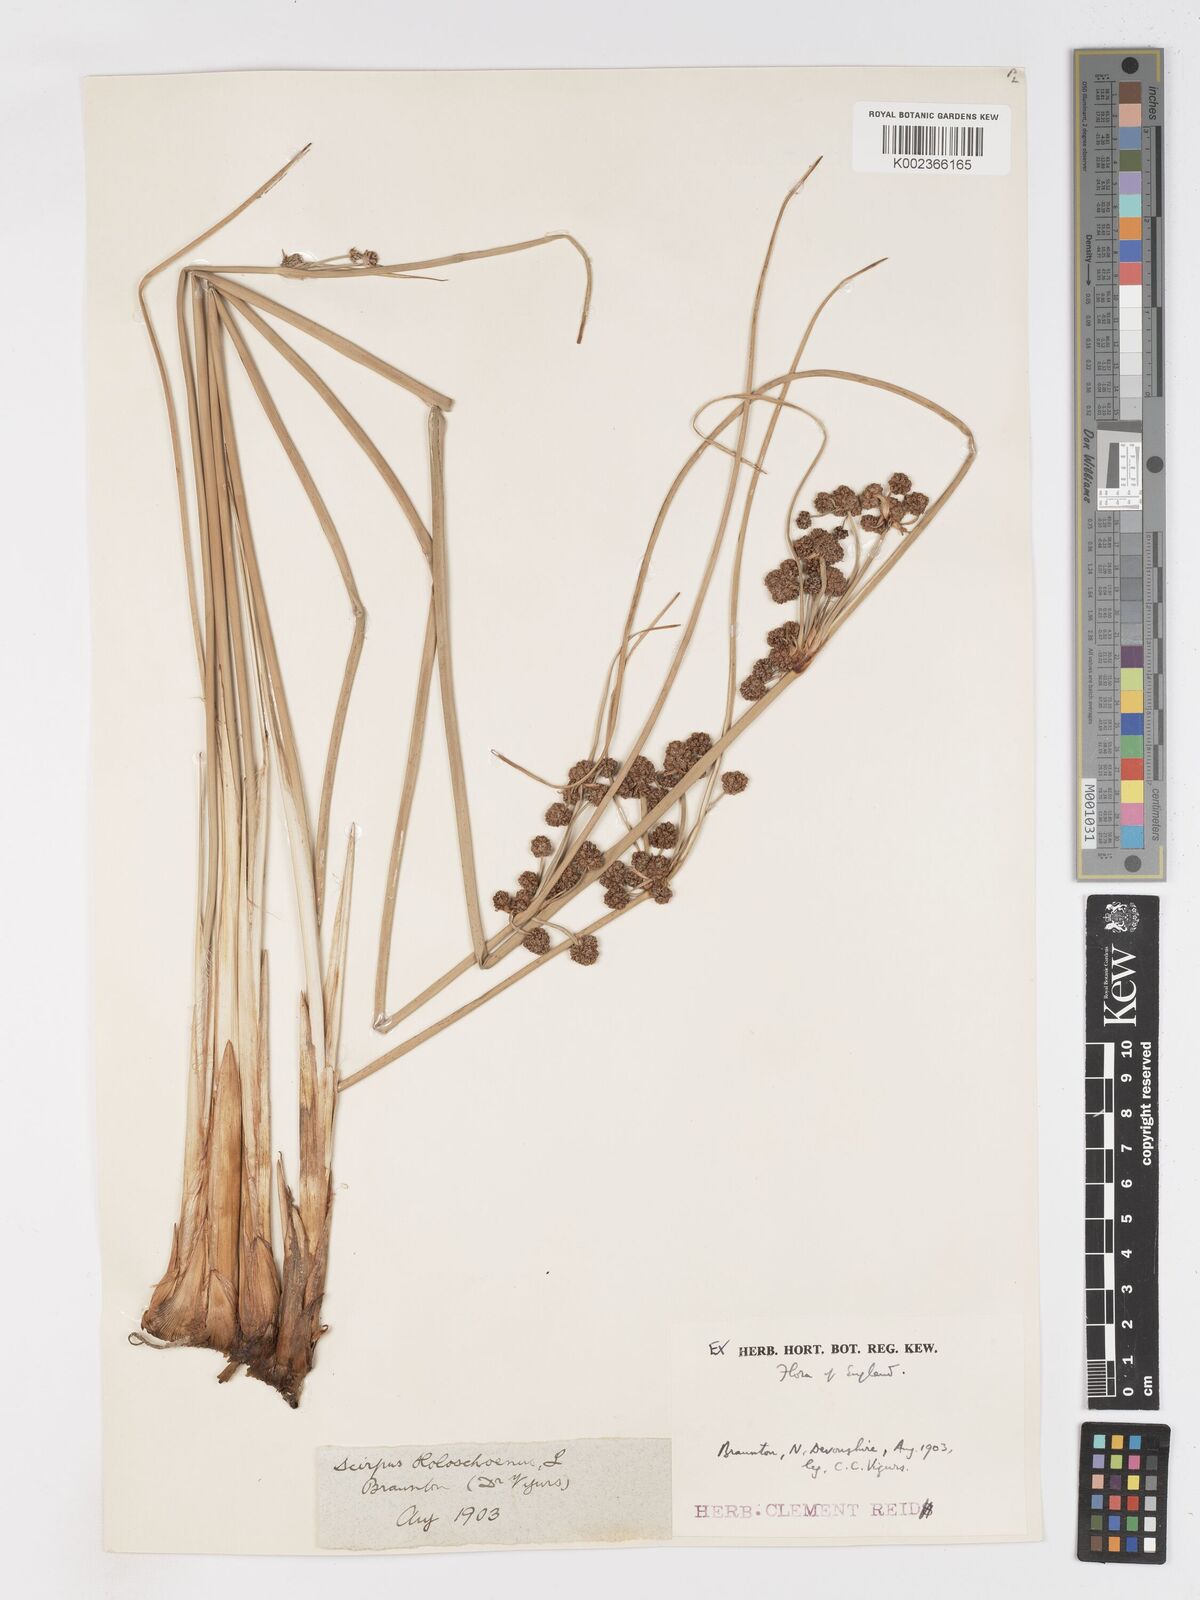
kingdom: Plantae
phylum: Tracheophyta
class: Liliopsida
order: Poales
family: Cyperaceae
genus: Scirpoides
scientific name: Scirpoides holoschoenus
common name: Round-headed club-rush
